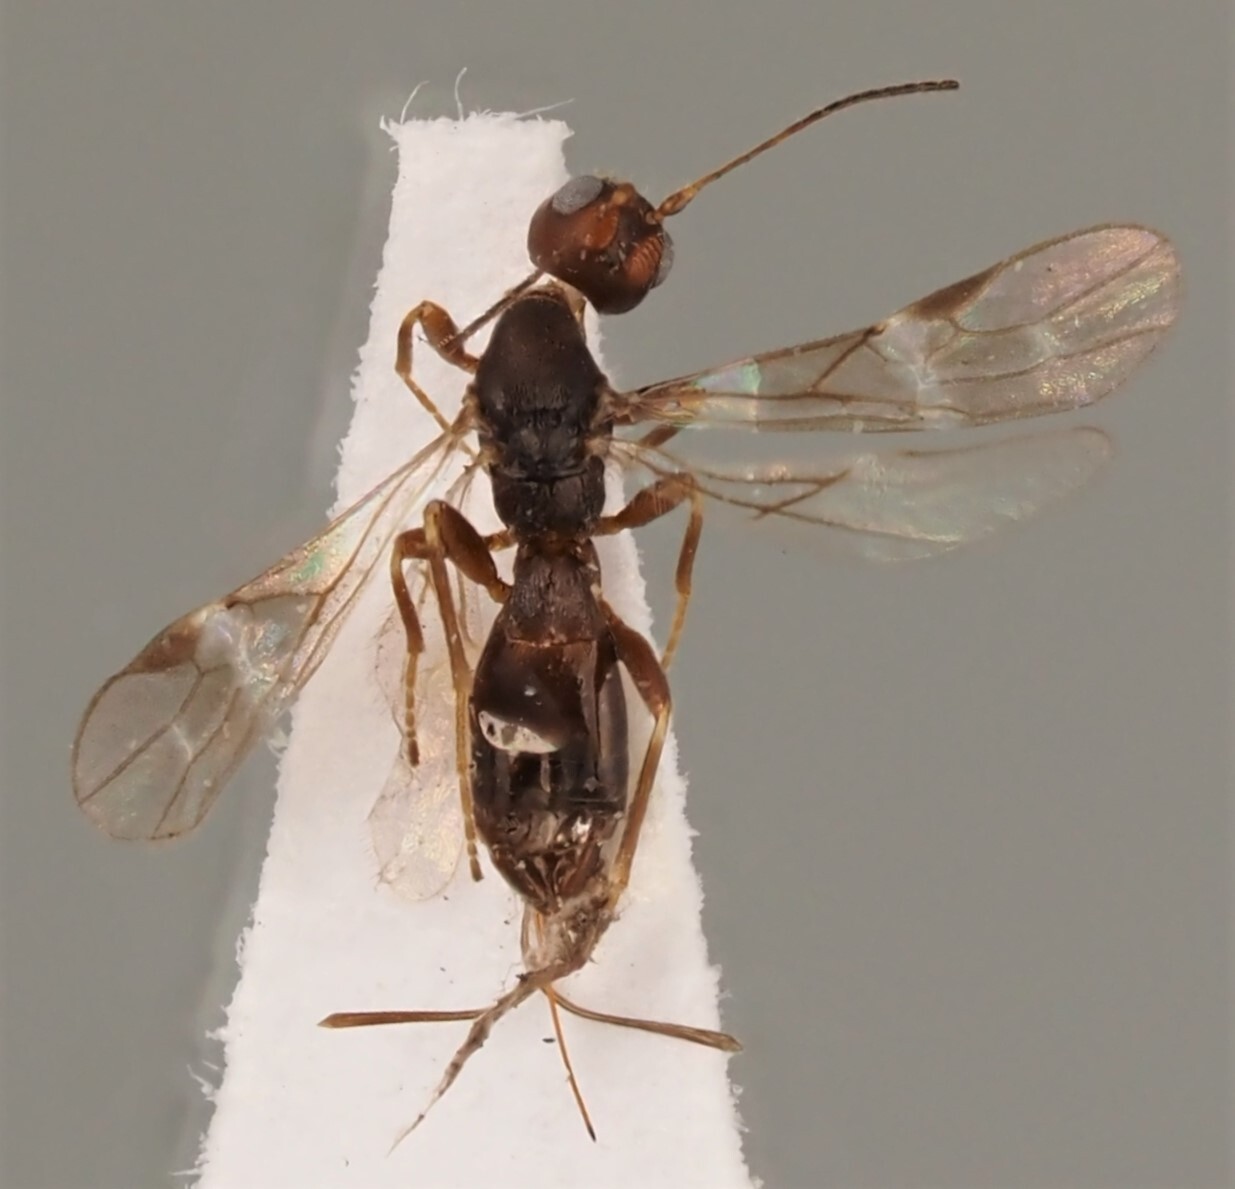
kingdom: Animalia
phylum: Arthropoda
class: Insecta
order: Hymenoptera
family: Braconidae
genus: Dendrosoter
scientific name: Dendrosoter middendorffii
